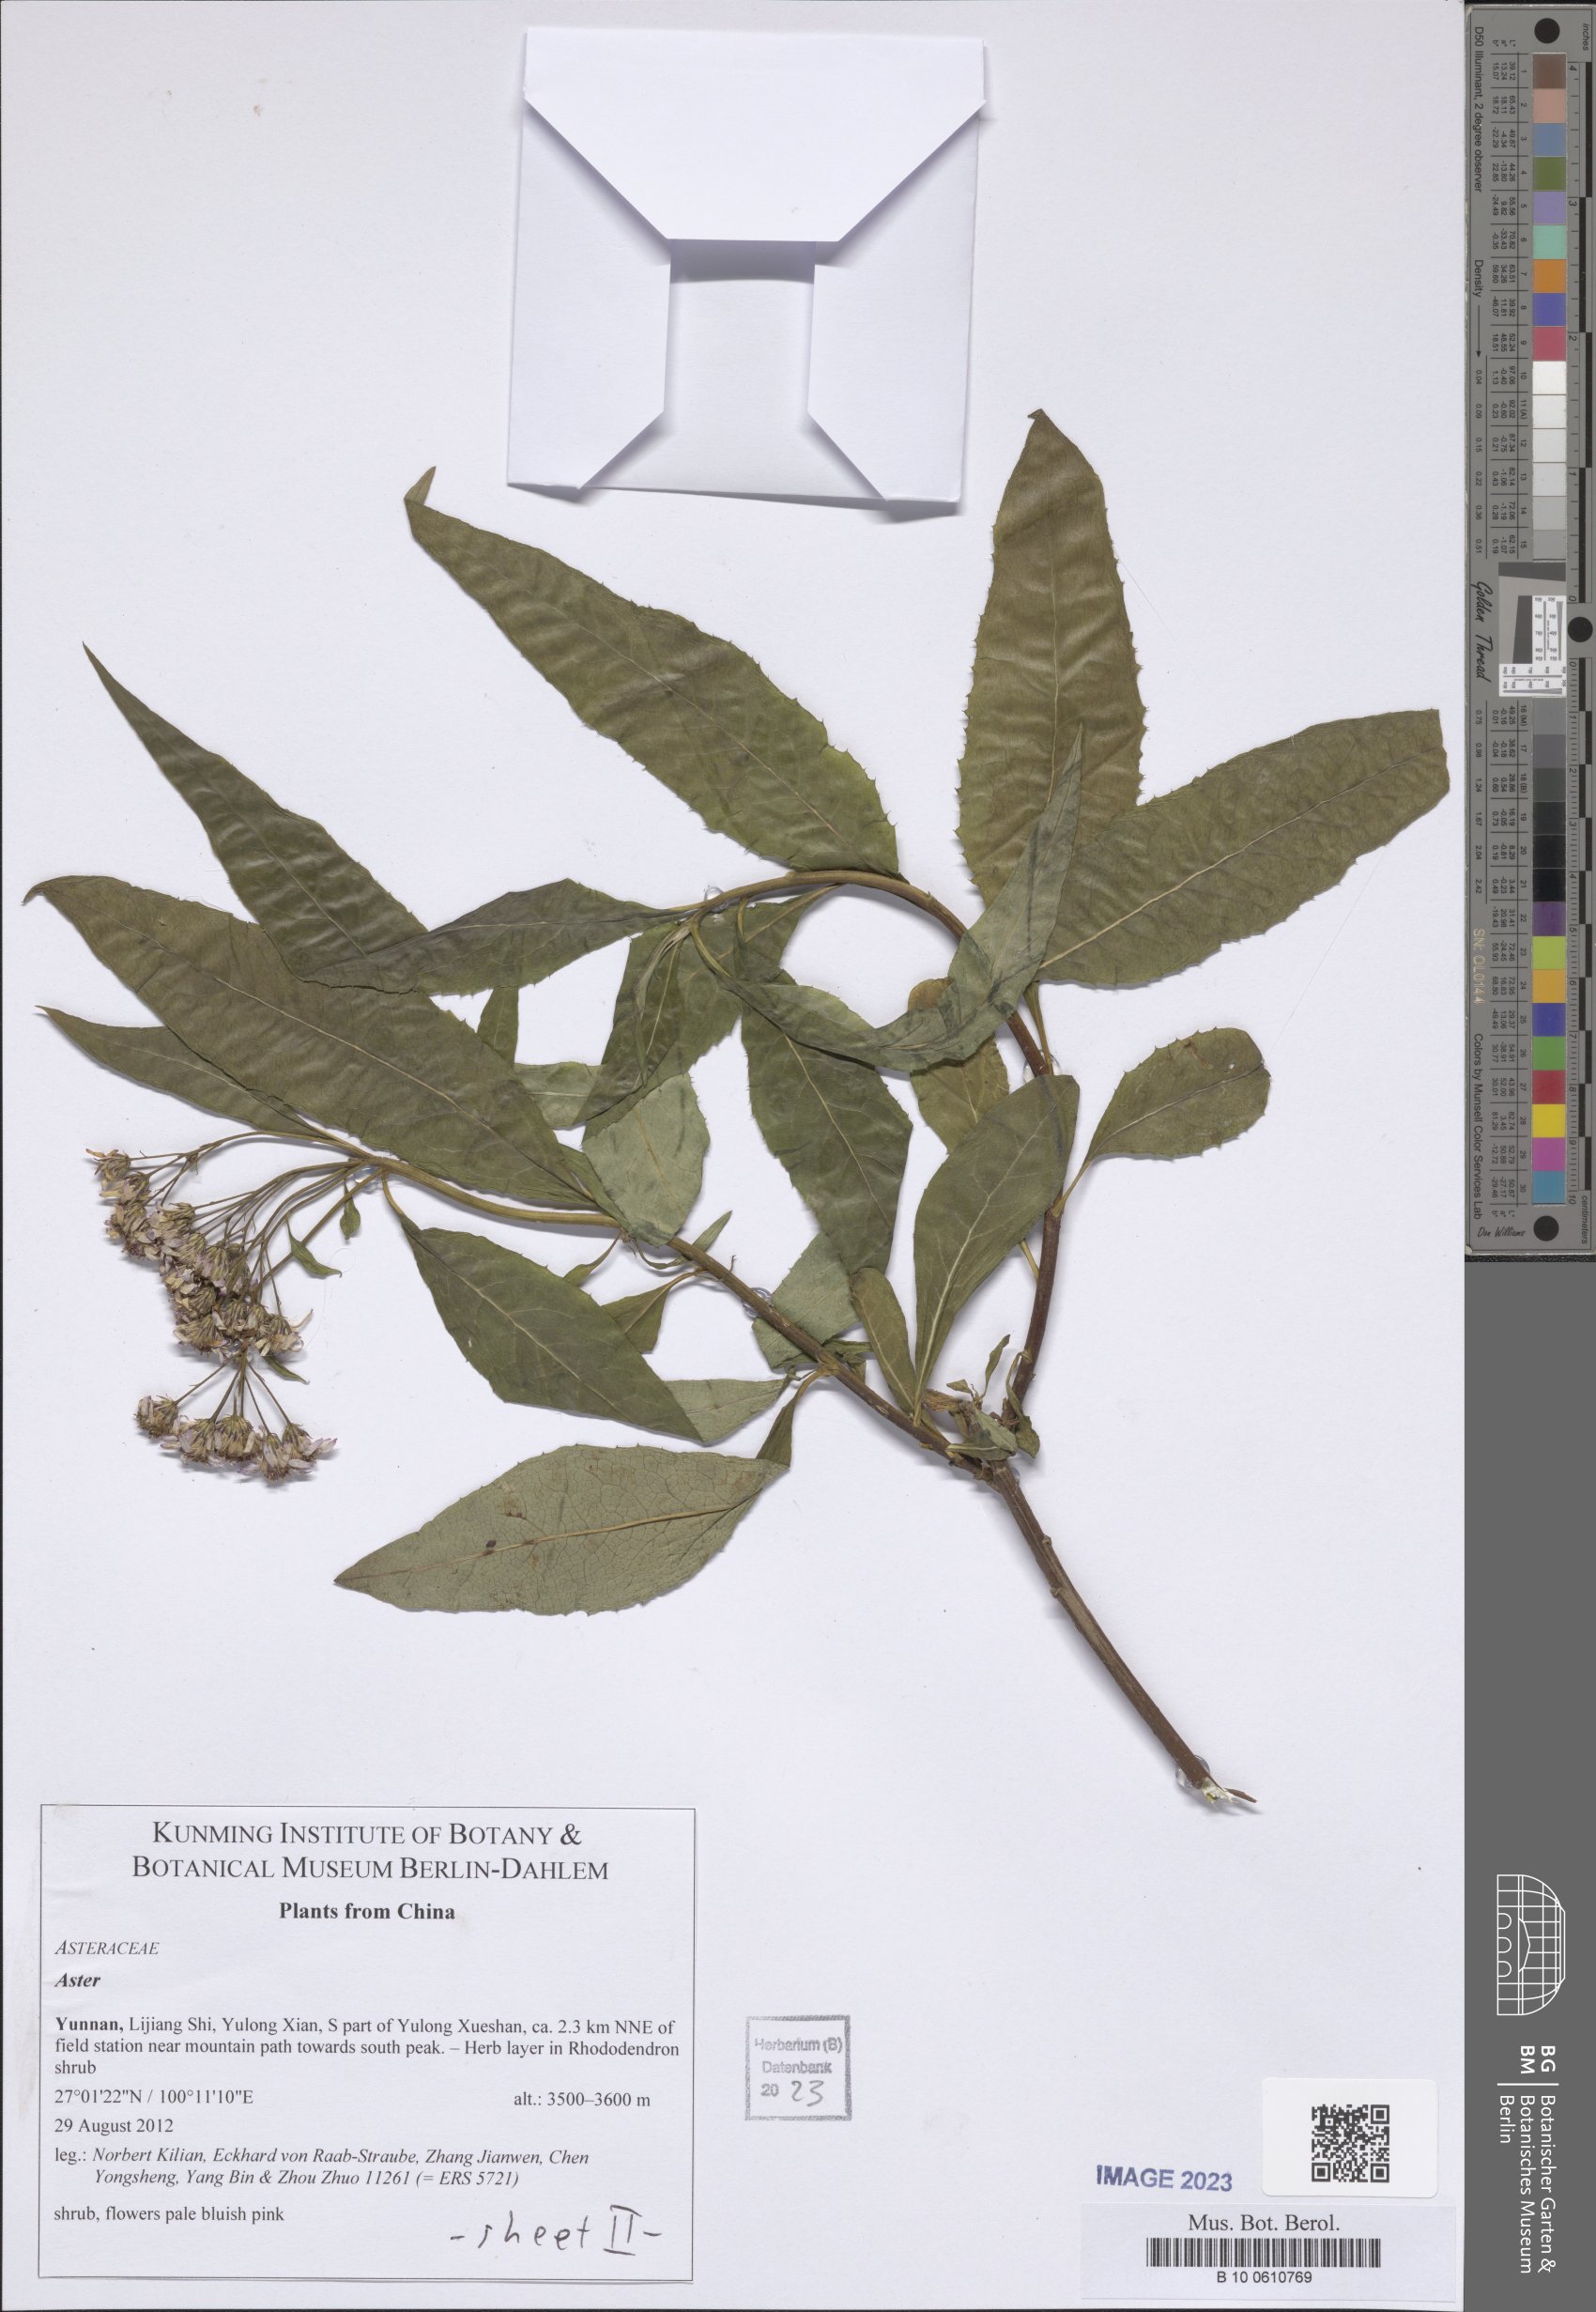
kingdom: Plantae
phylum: Tracheophyta
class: Magnoliopsida
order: Asterales
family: Asteraceae
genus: Aster
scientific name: Aster
